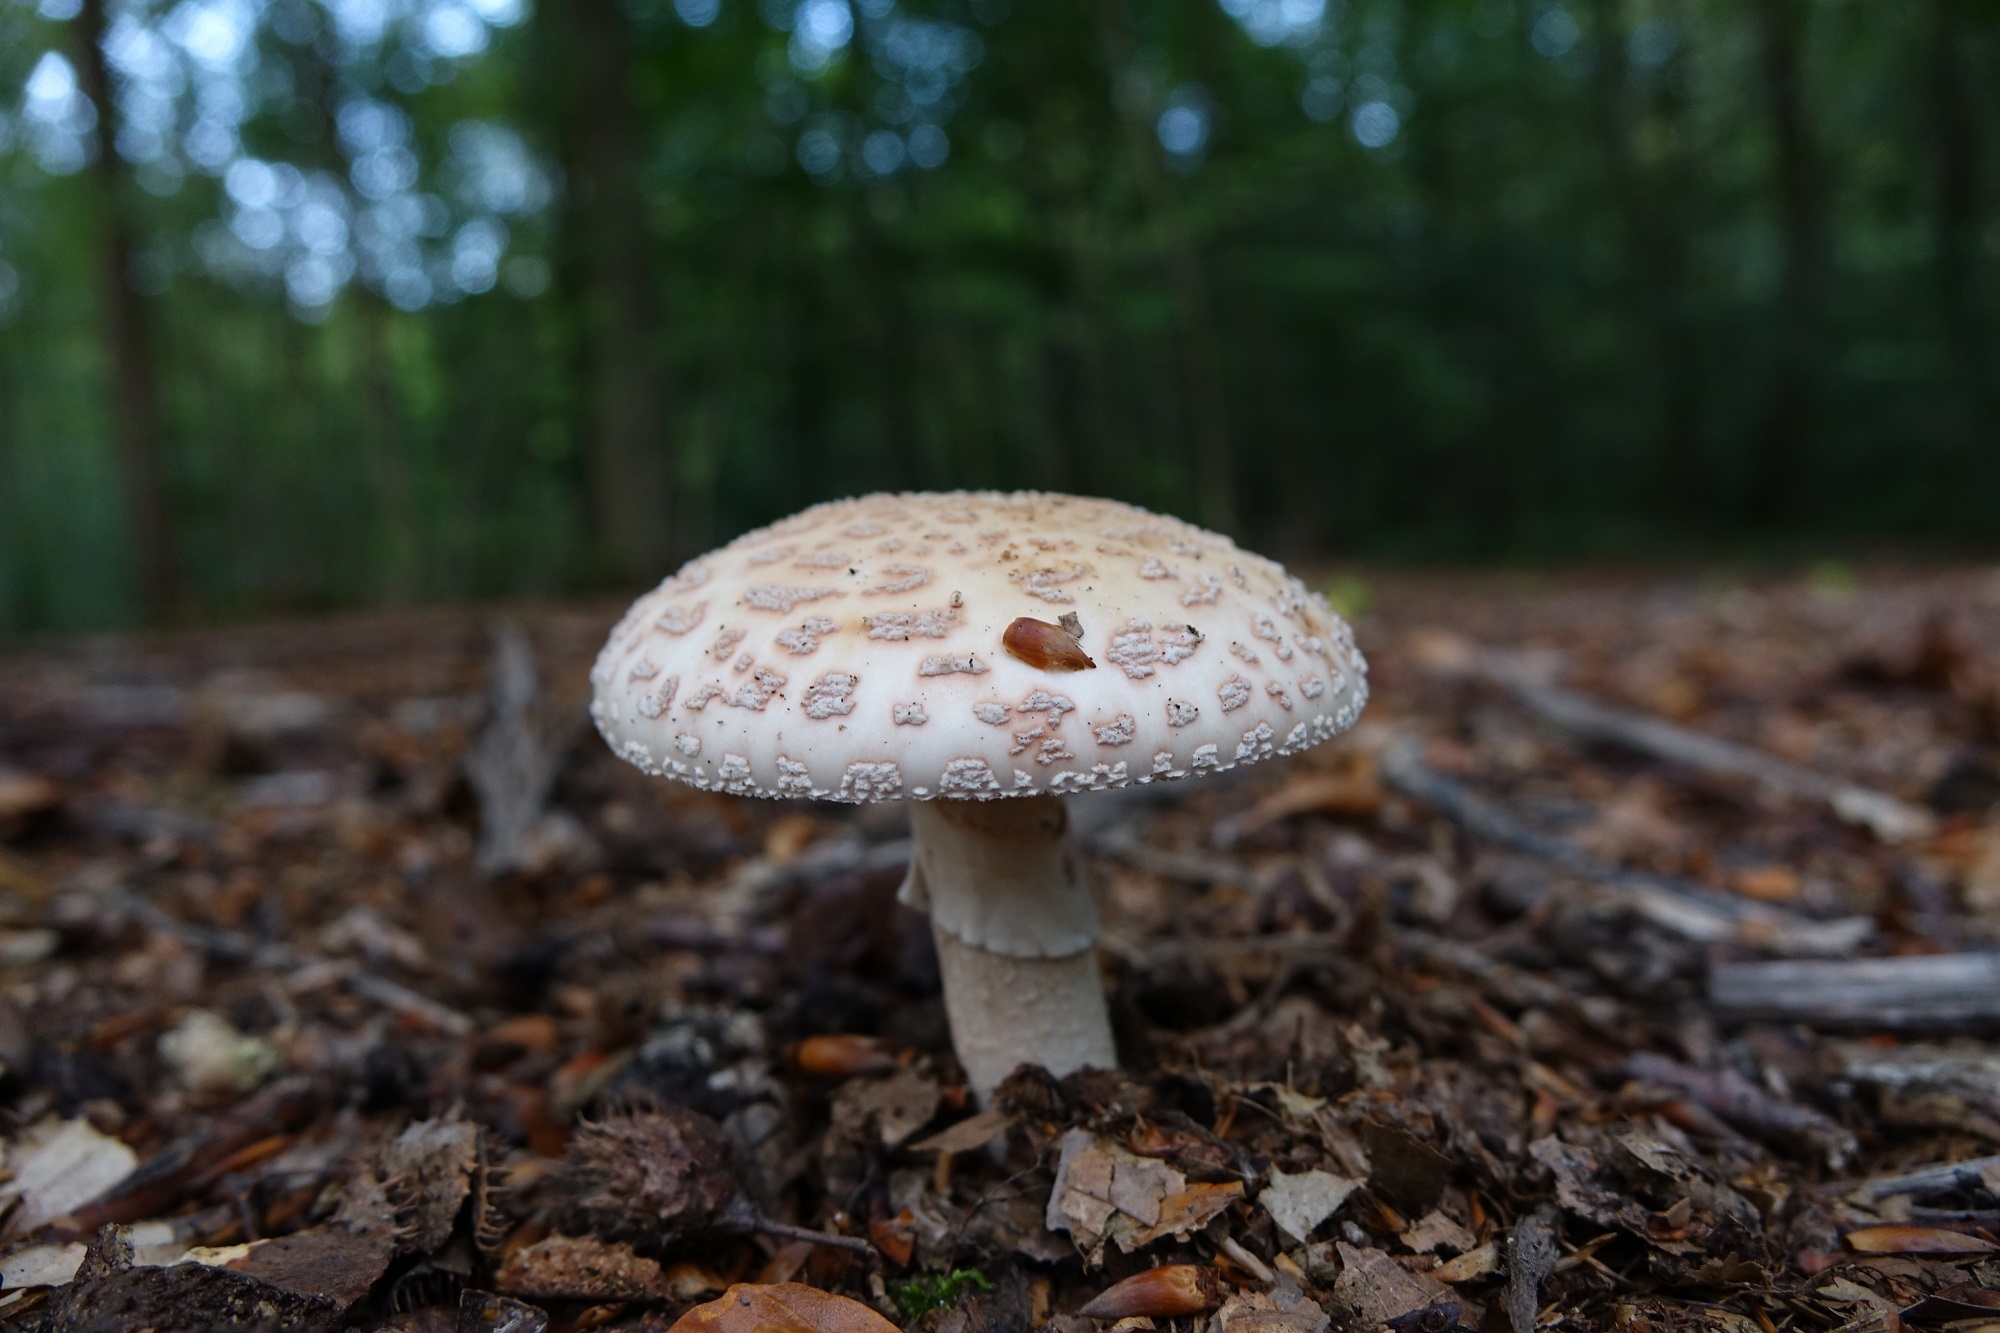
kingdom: Fungi
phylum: Basidiomycota
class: Agaricomycetes
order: Agaricales
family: Amanitaceae
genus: Amanita
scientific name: Amanita rubescens
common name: Blusher
